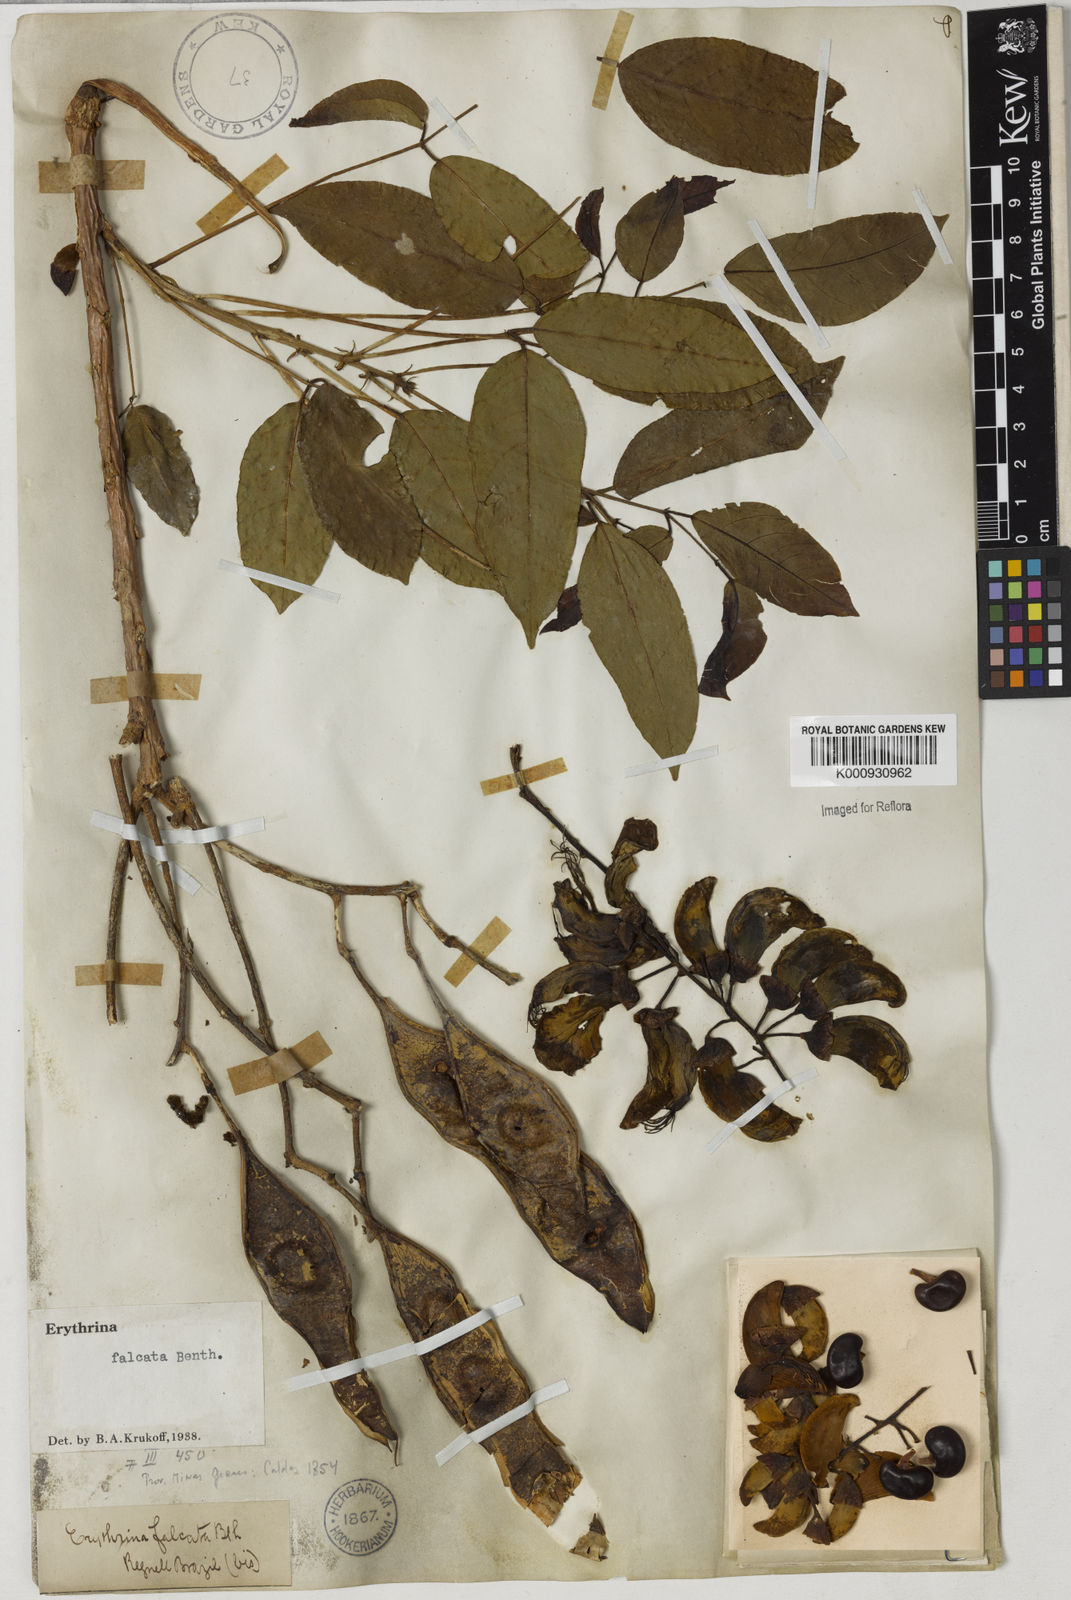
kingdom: Plantae
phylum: Tracheophyta
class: Magnoliopsida
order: Fabales
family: Fabaceae
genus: Erythrina
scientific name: Erythrina falcata
